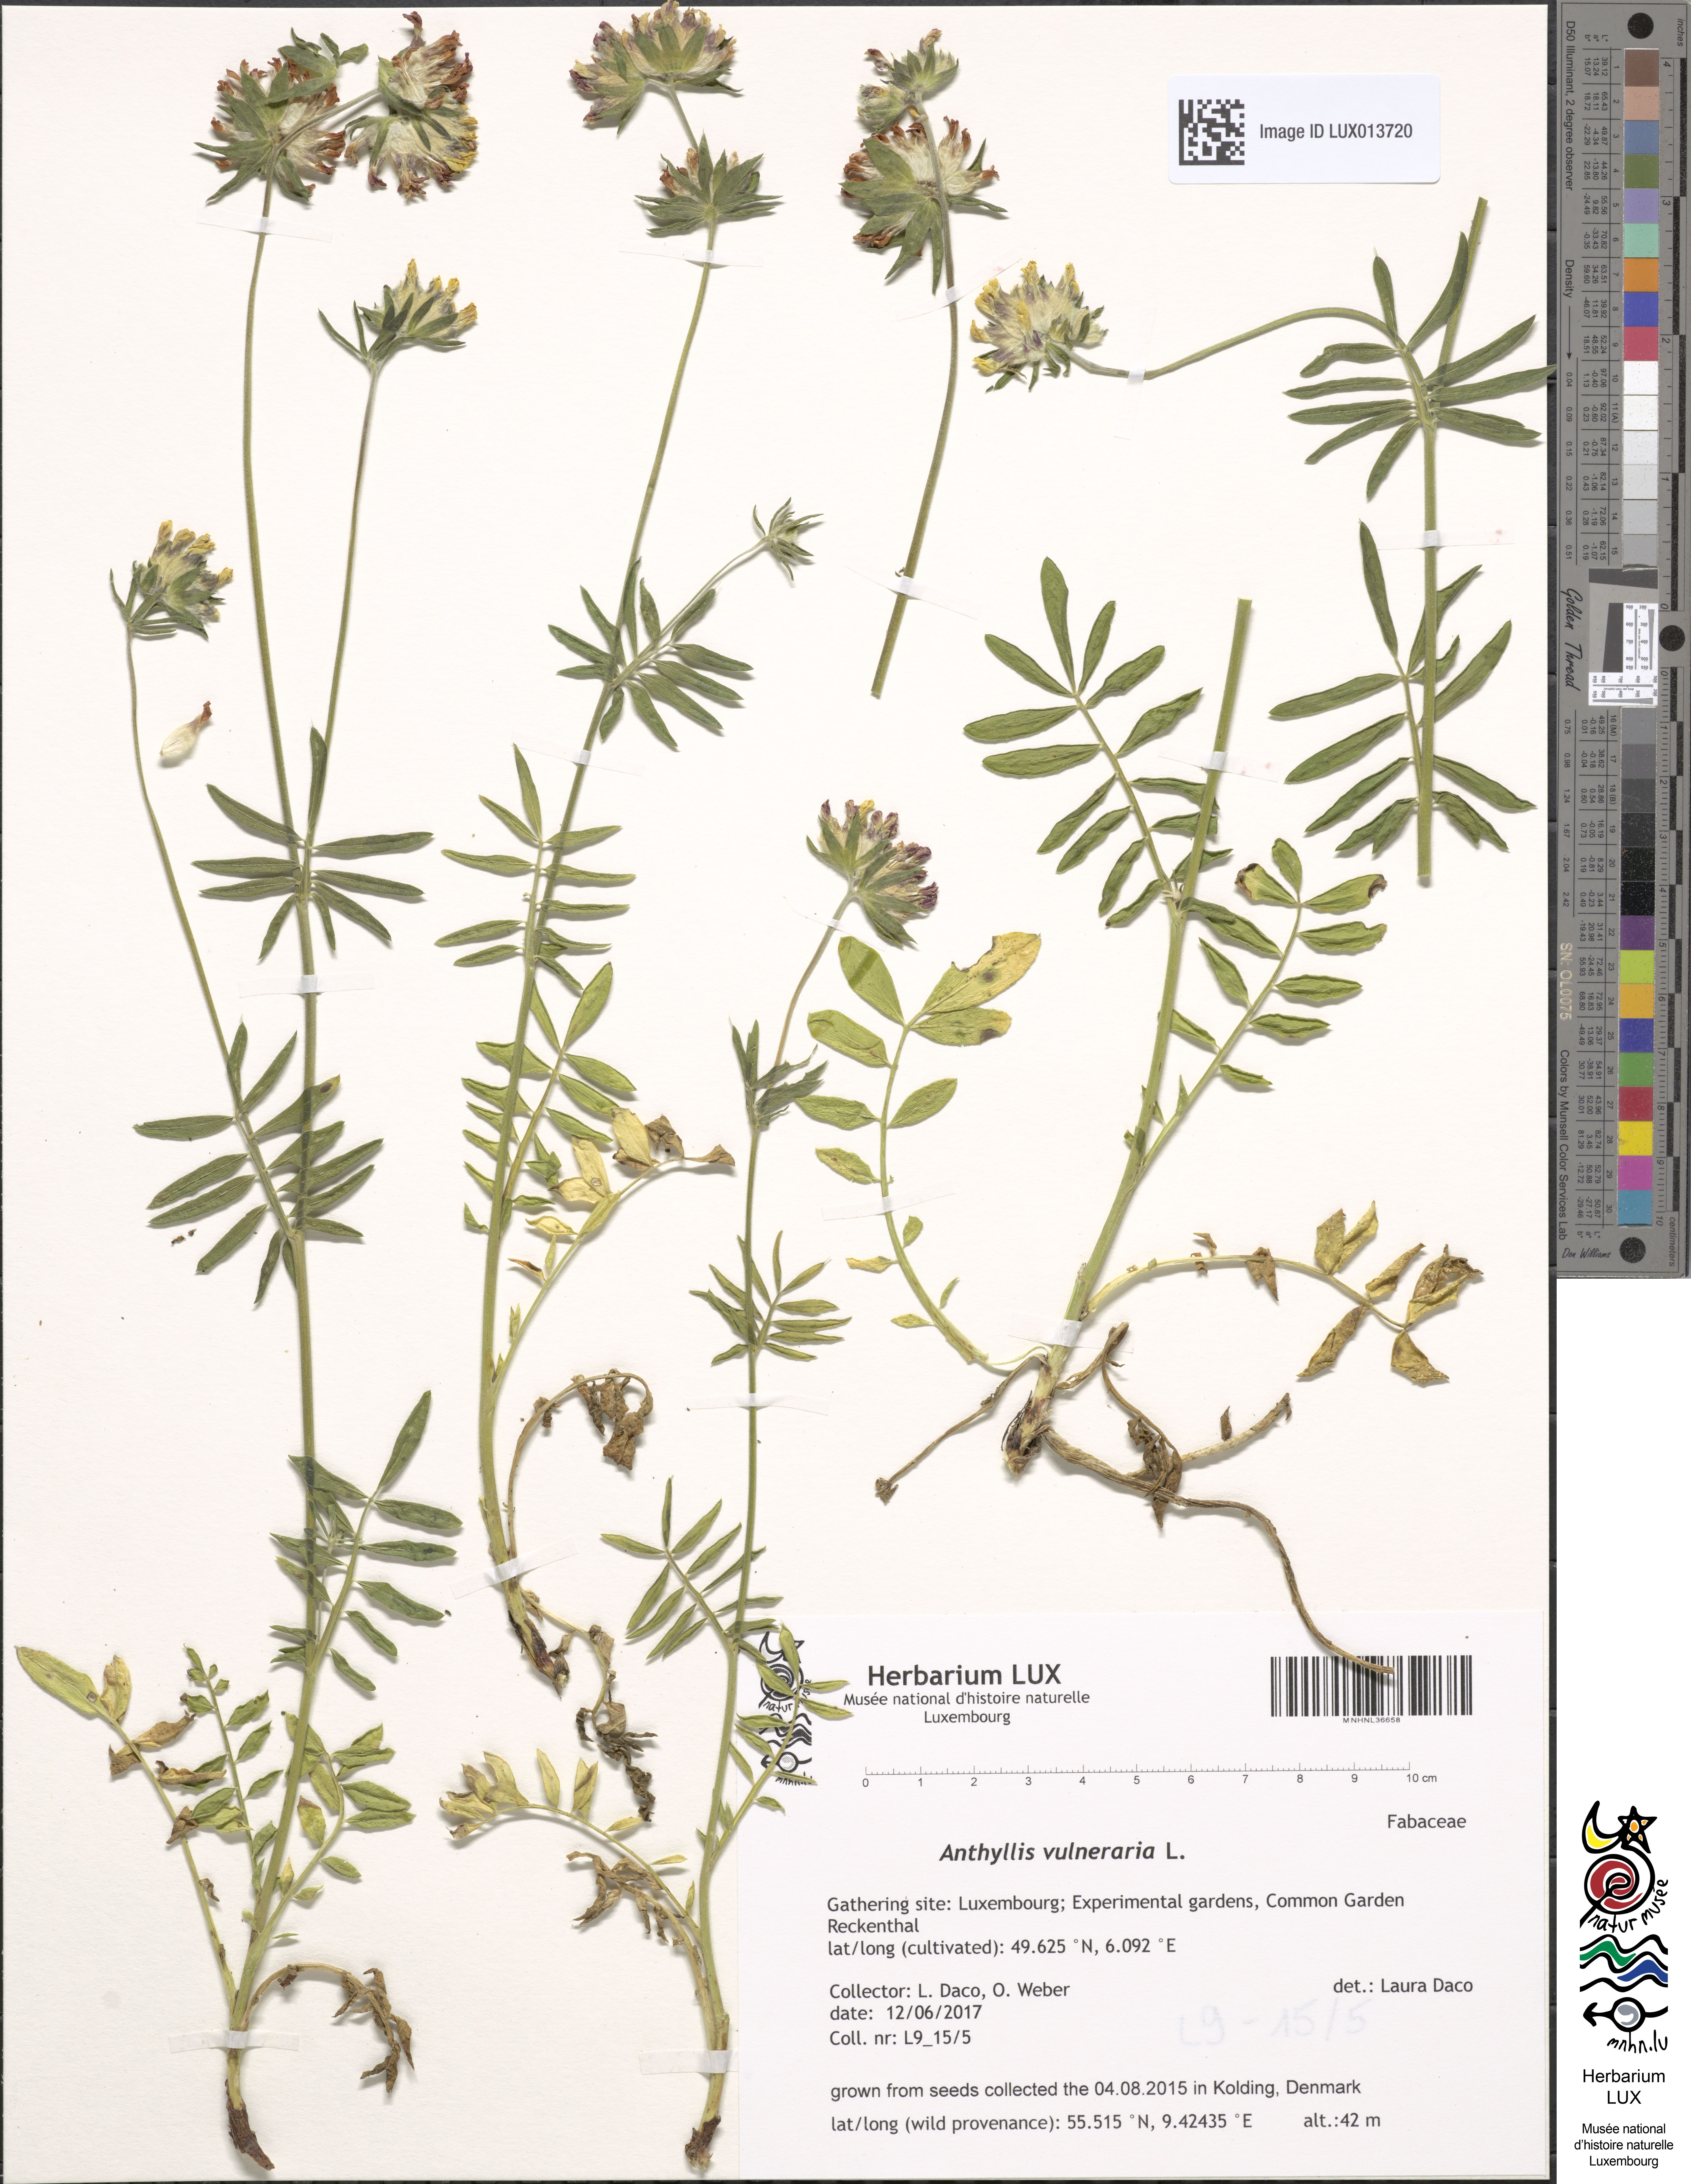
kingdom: Plantae
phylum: Tracheophyta
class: Magnoliopsida
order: Fabales
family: Fabaceae
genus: Anthyllis
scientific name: Anthyllis vulneraria
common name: Kidney vetch
